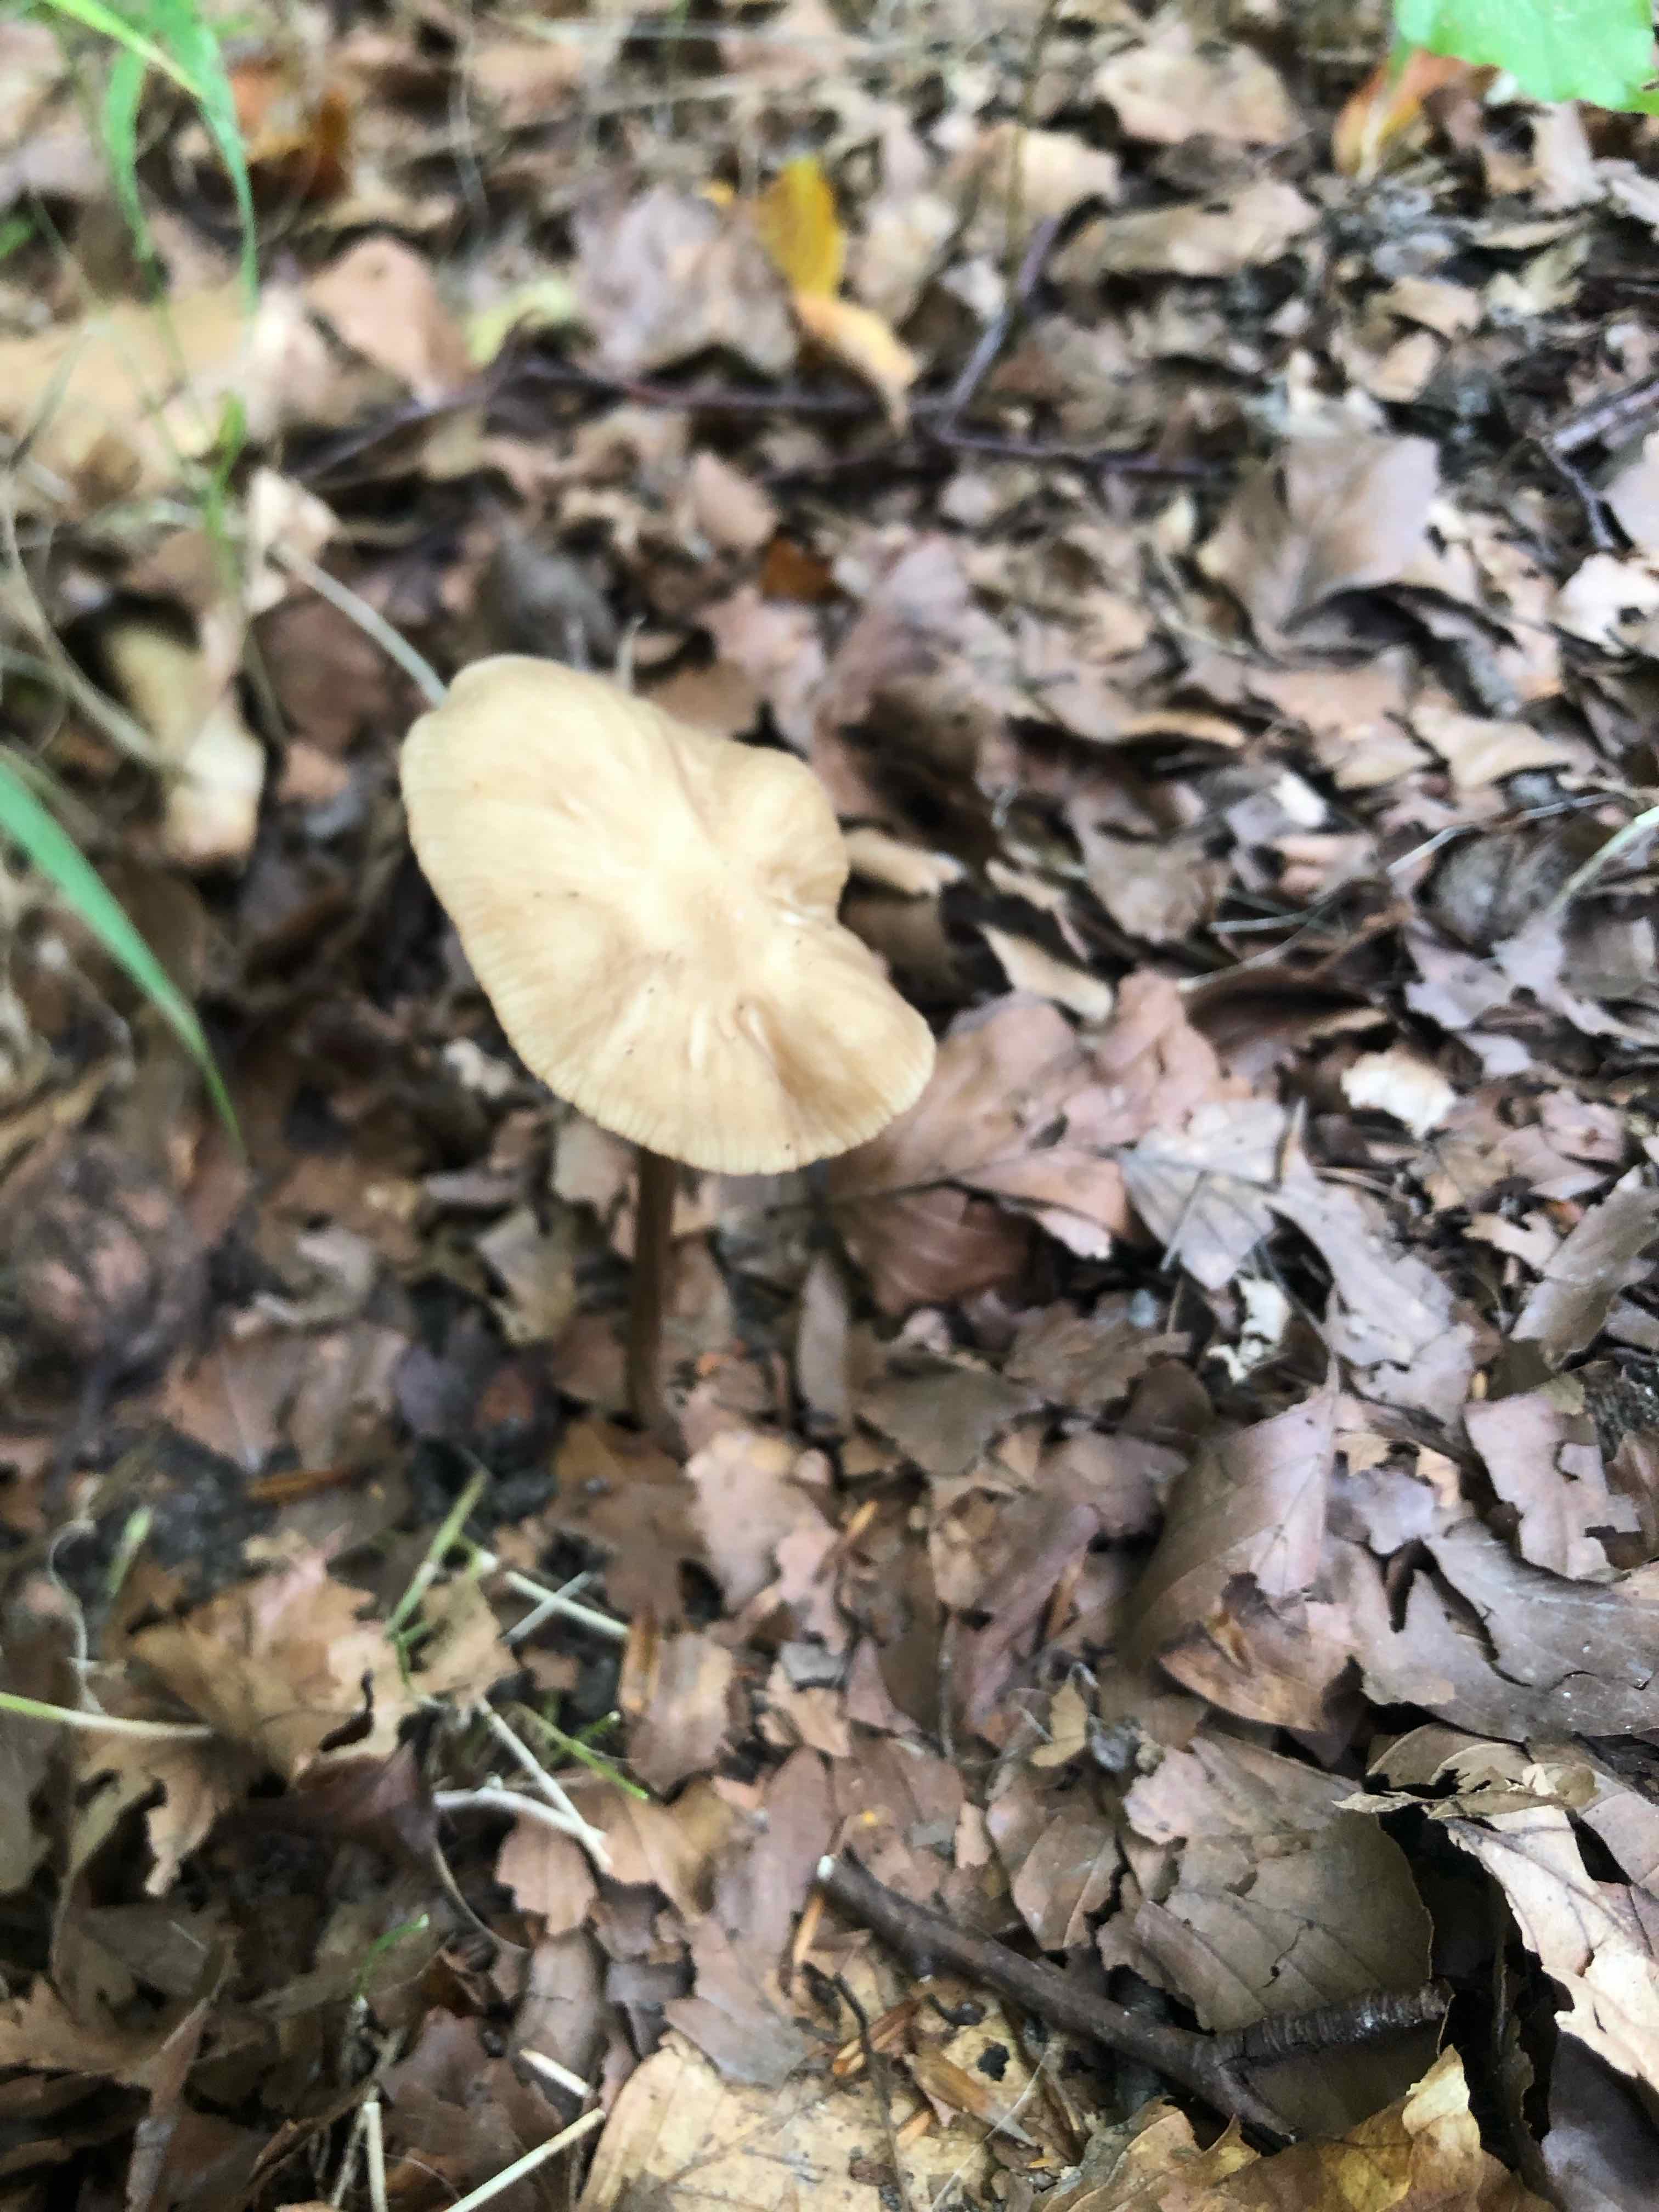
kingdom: Fungi
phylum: Basidiomycota
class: Agaricomycetes
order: Agaricales
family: Physalacriaceae
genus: Hymenopellis
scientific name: Hymenopellis radicata
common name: almindelig pælerodshat
